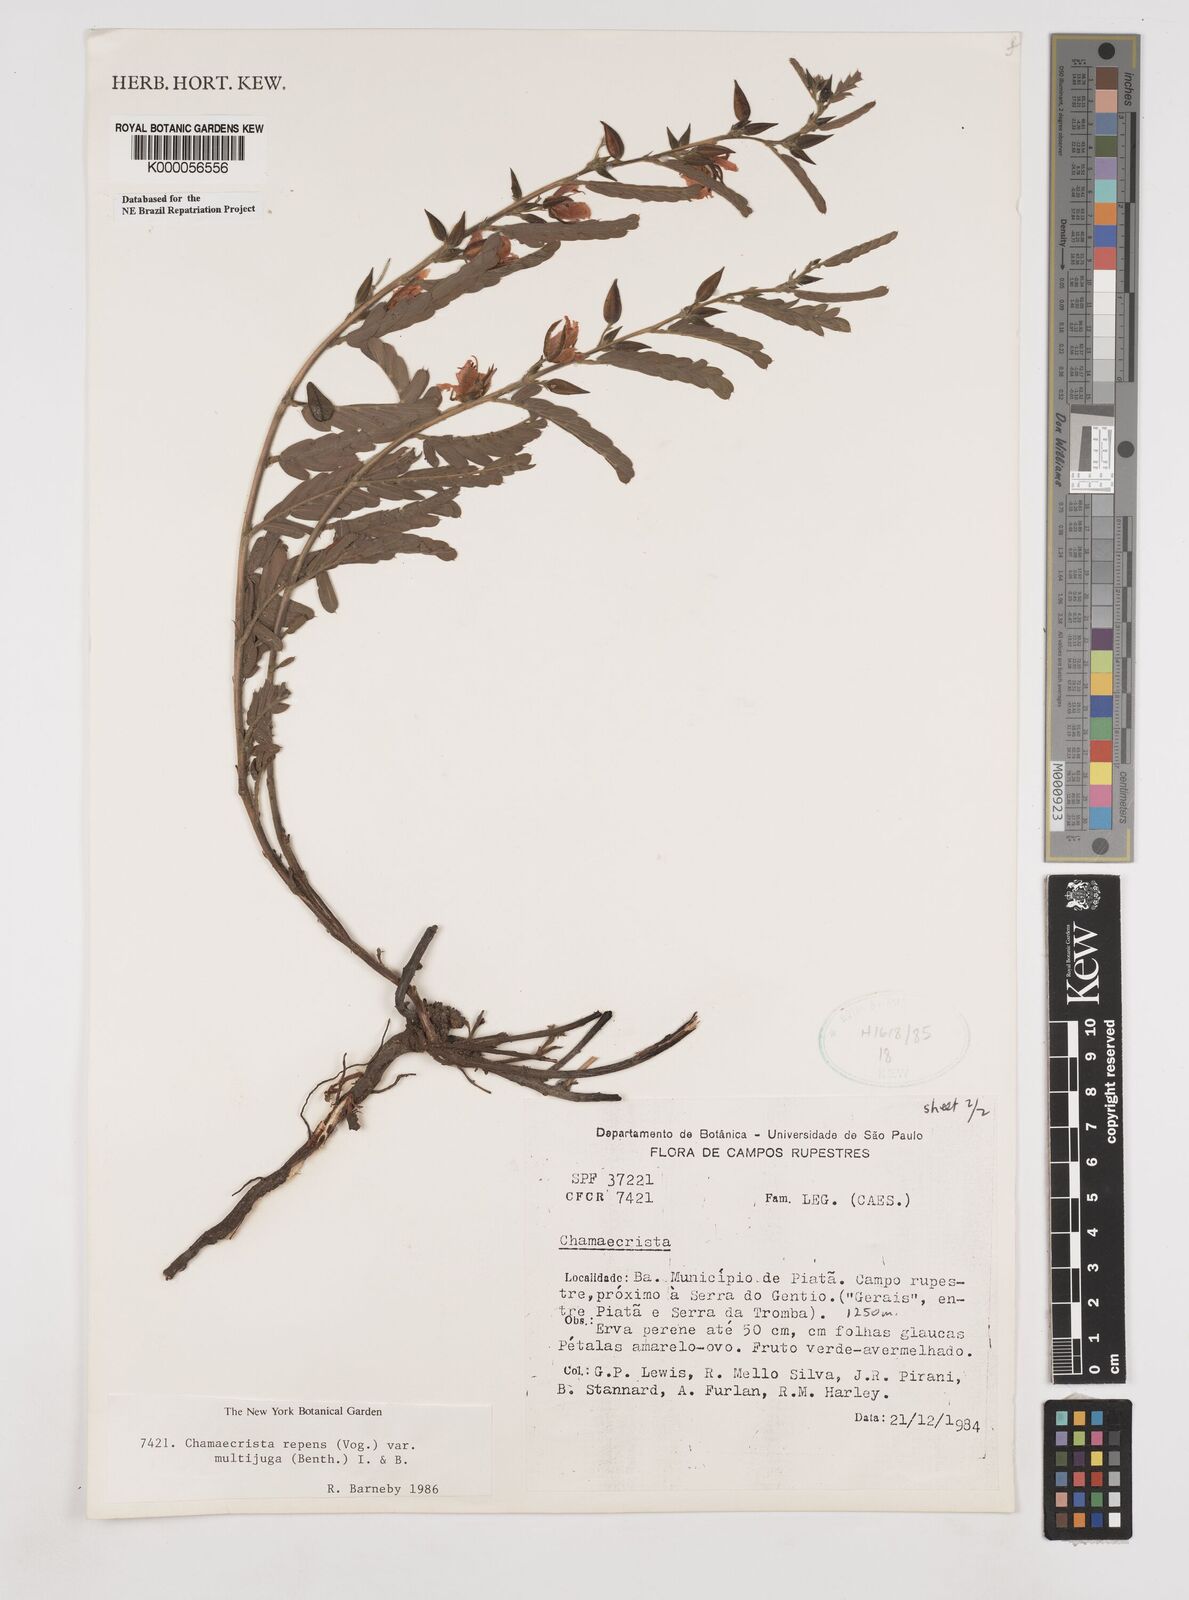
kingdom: Plantae
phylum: Tracheophyta
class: Magnoliopsida
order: Fabales
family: Fabaceae
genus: Chamaecrista
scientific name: Chamaecrista repens
